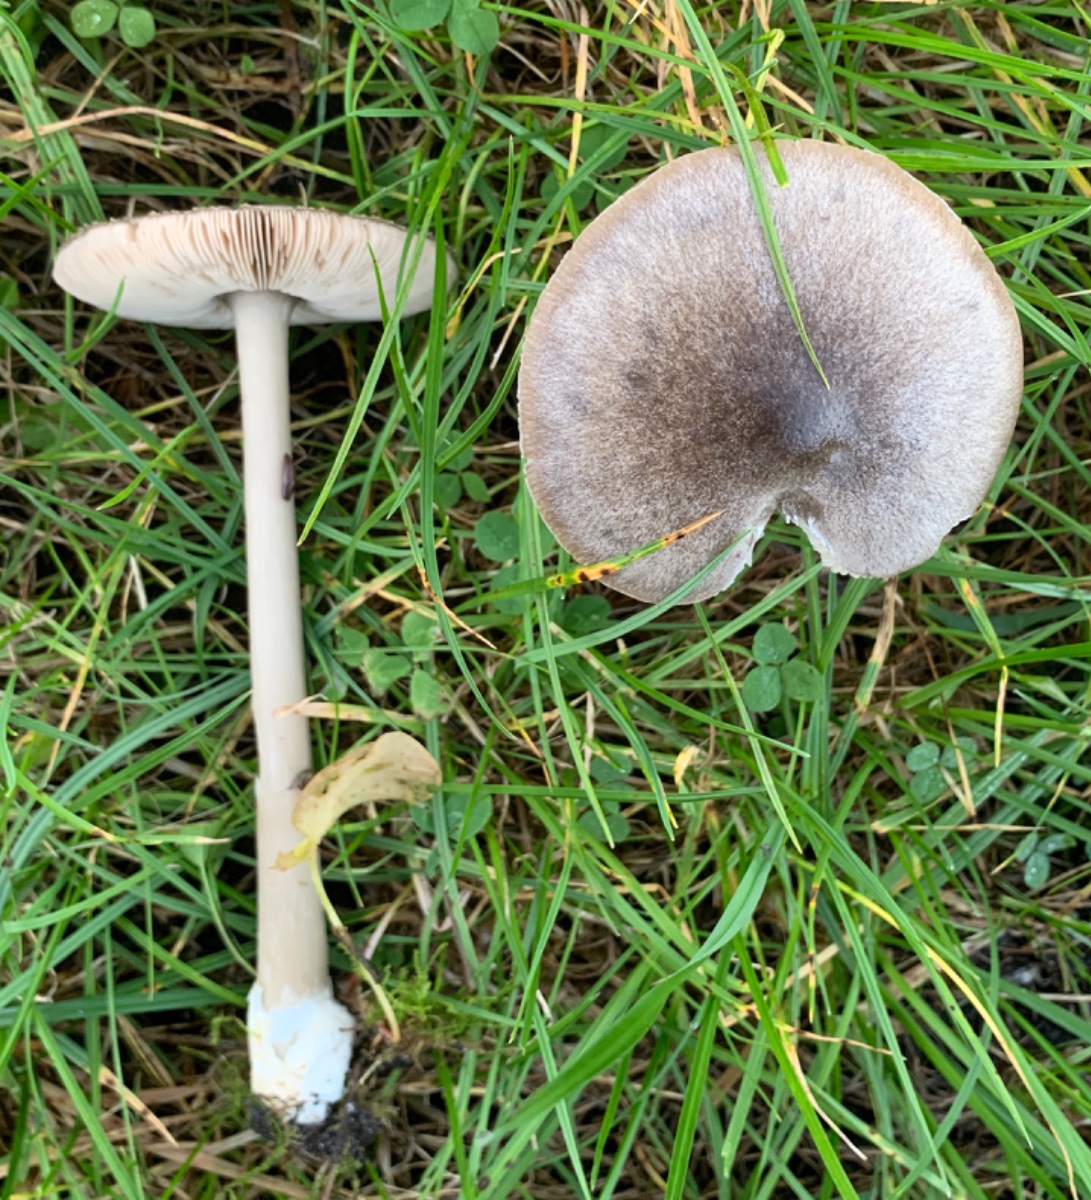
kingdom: Fungi
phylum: Basidiomycota
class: Agaricomycetes
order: Agaricales
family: Pluteaceae
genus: Volvopluteus
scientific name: Volvopluteus gloiocephalus
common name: høj posesvamp
